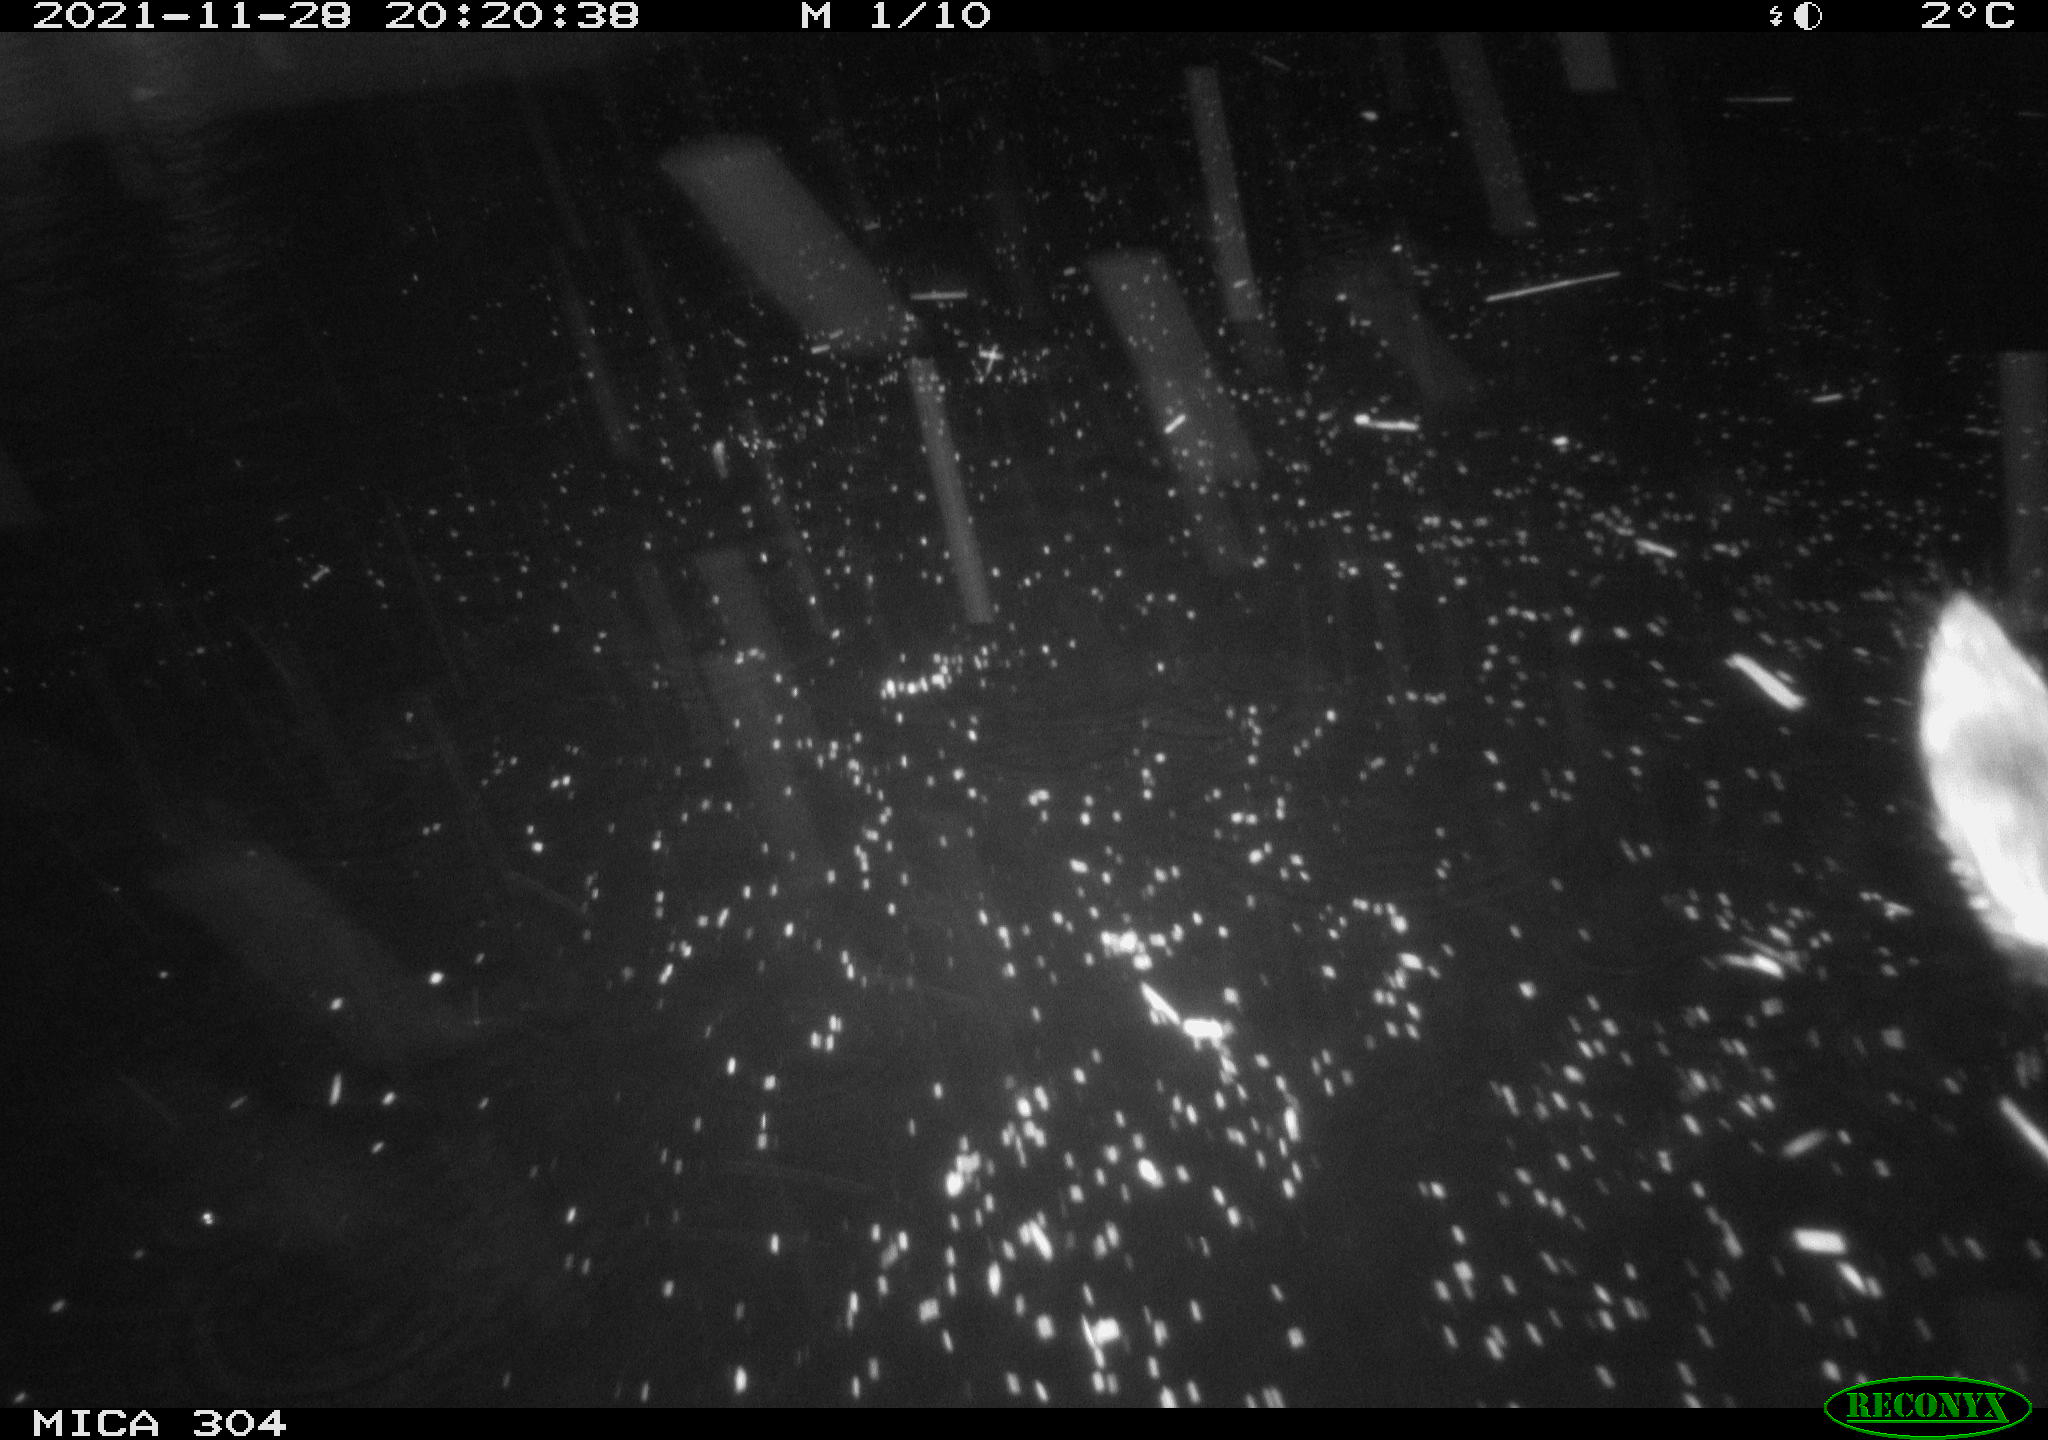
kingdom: Animalia
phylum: Chordata
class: Mammalia
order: Rodentia
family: Muridae
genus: Rattus
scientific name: Rattus norvegicus
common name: Brown rat
